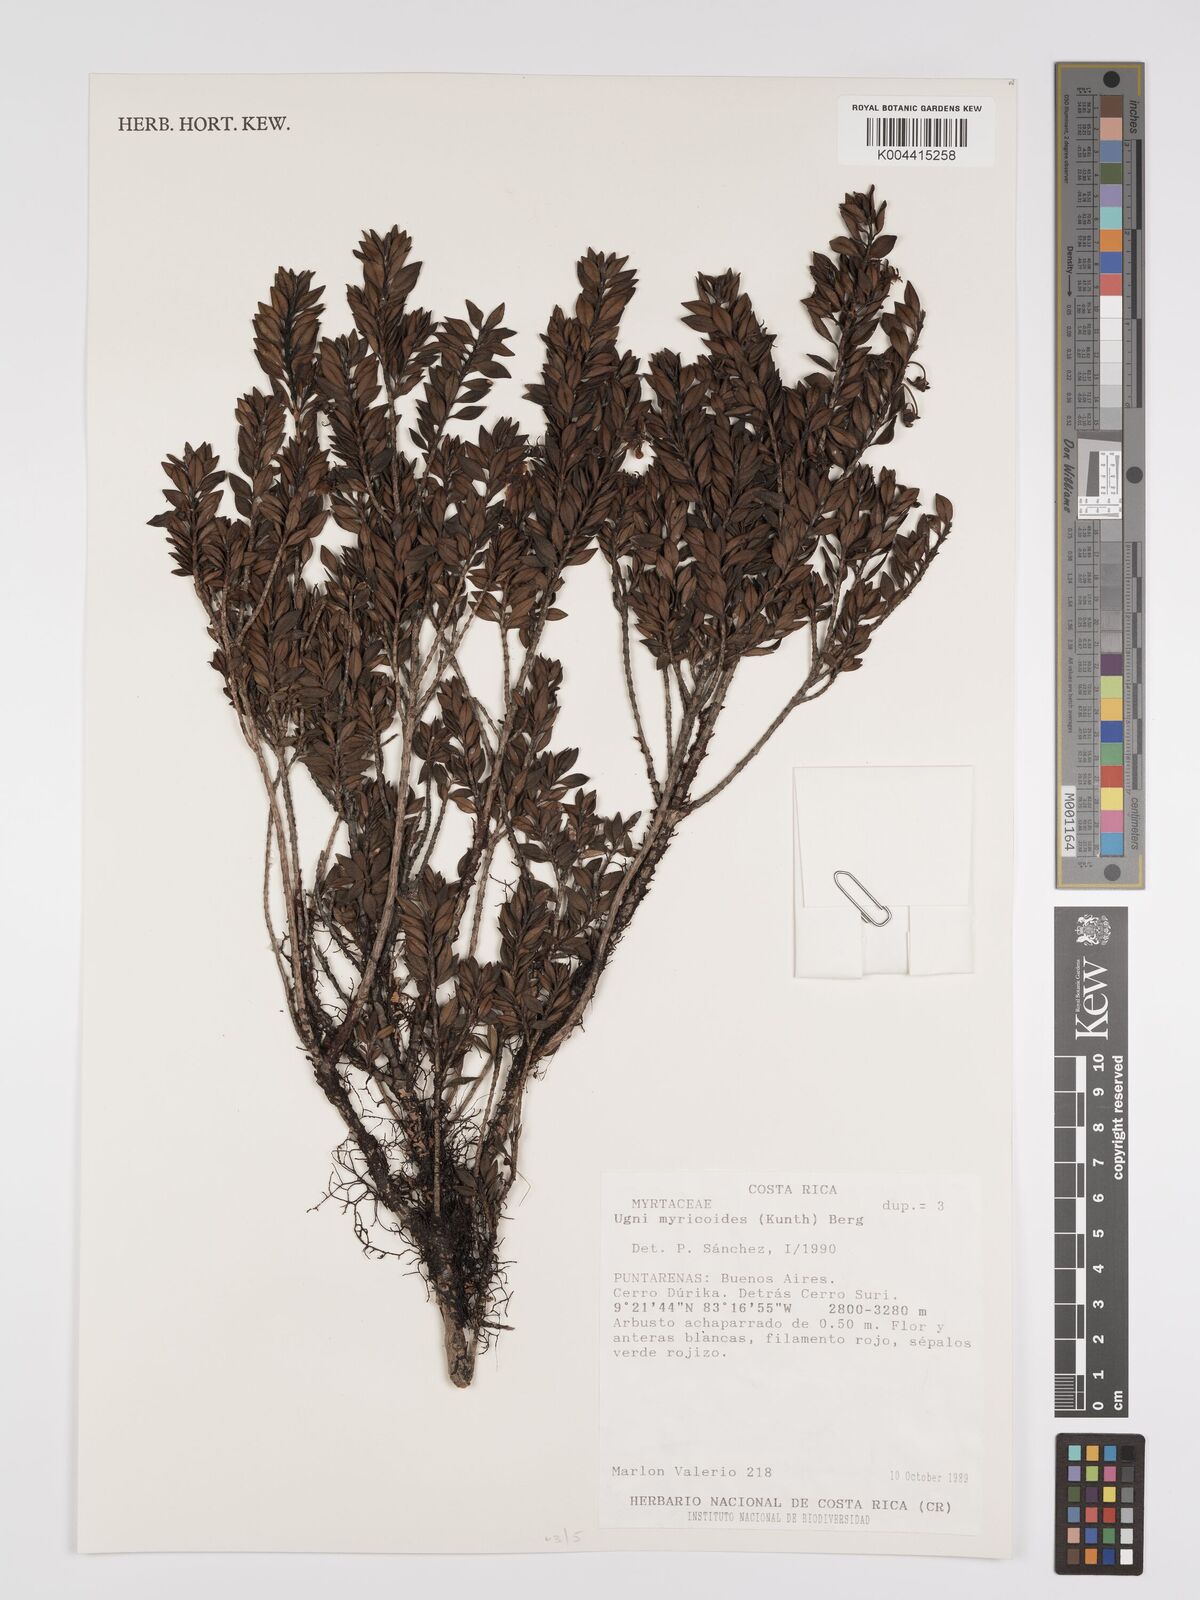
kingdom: Plantae
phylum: Tracheophyta
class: Magnoliopsida
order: Myrtales
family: Myrtaceae
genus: Ugni
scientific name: Ugni myricoides
